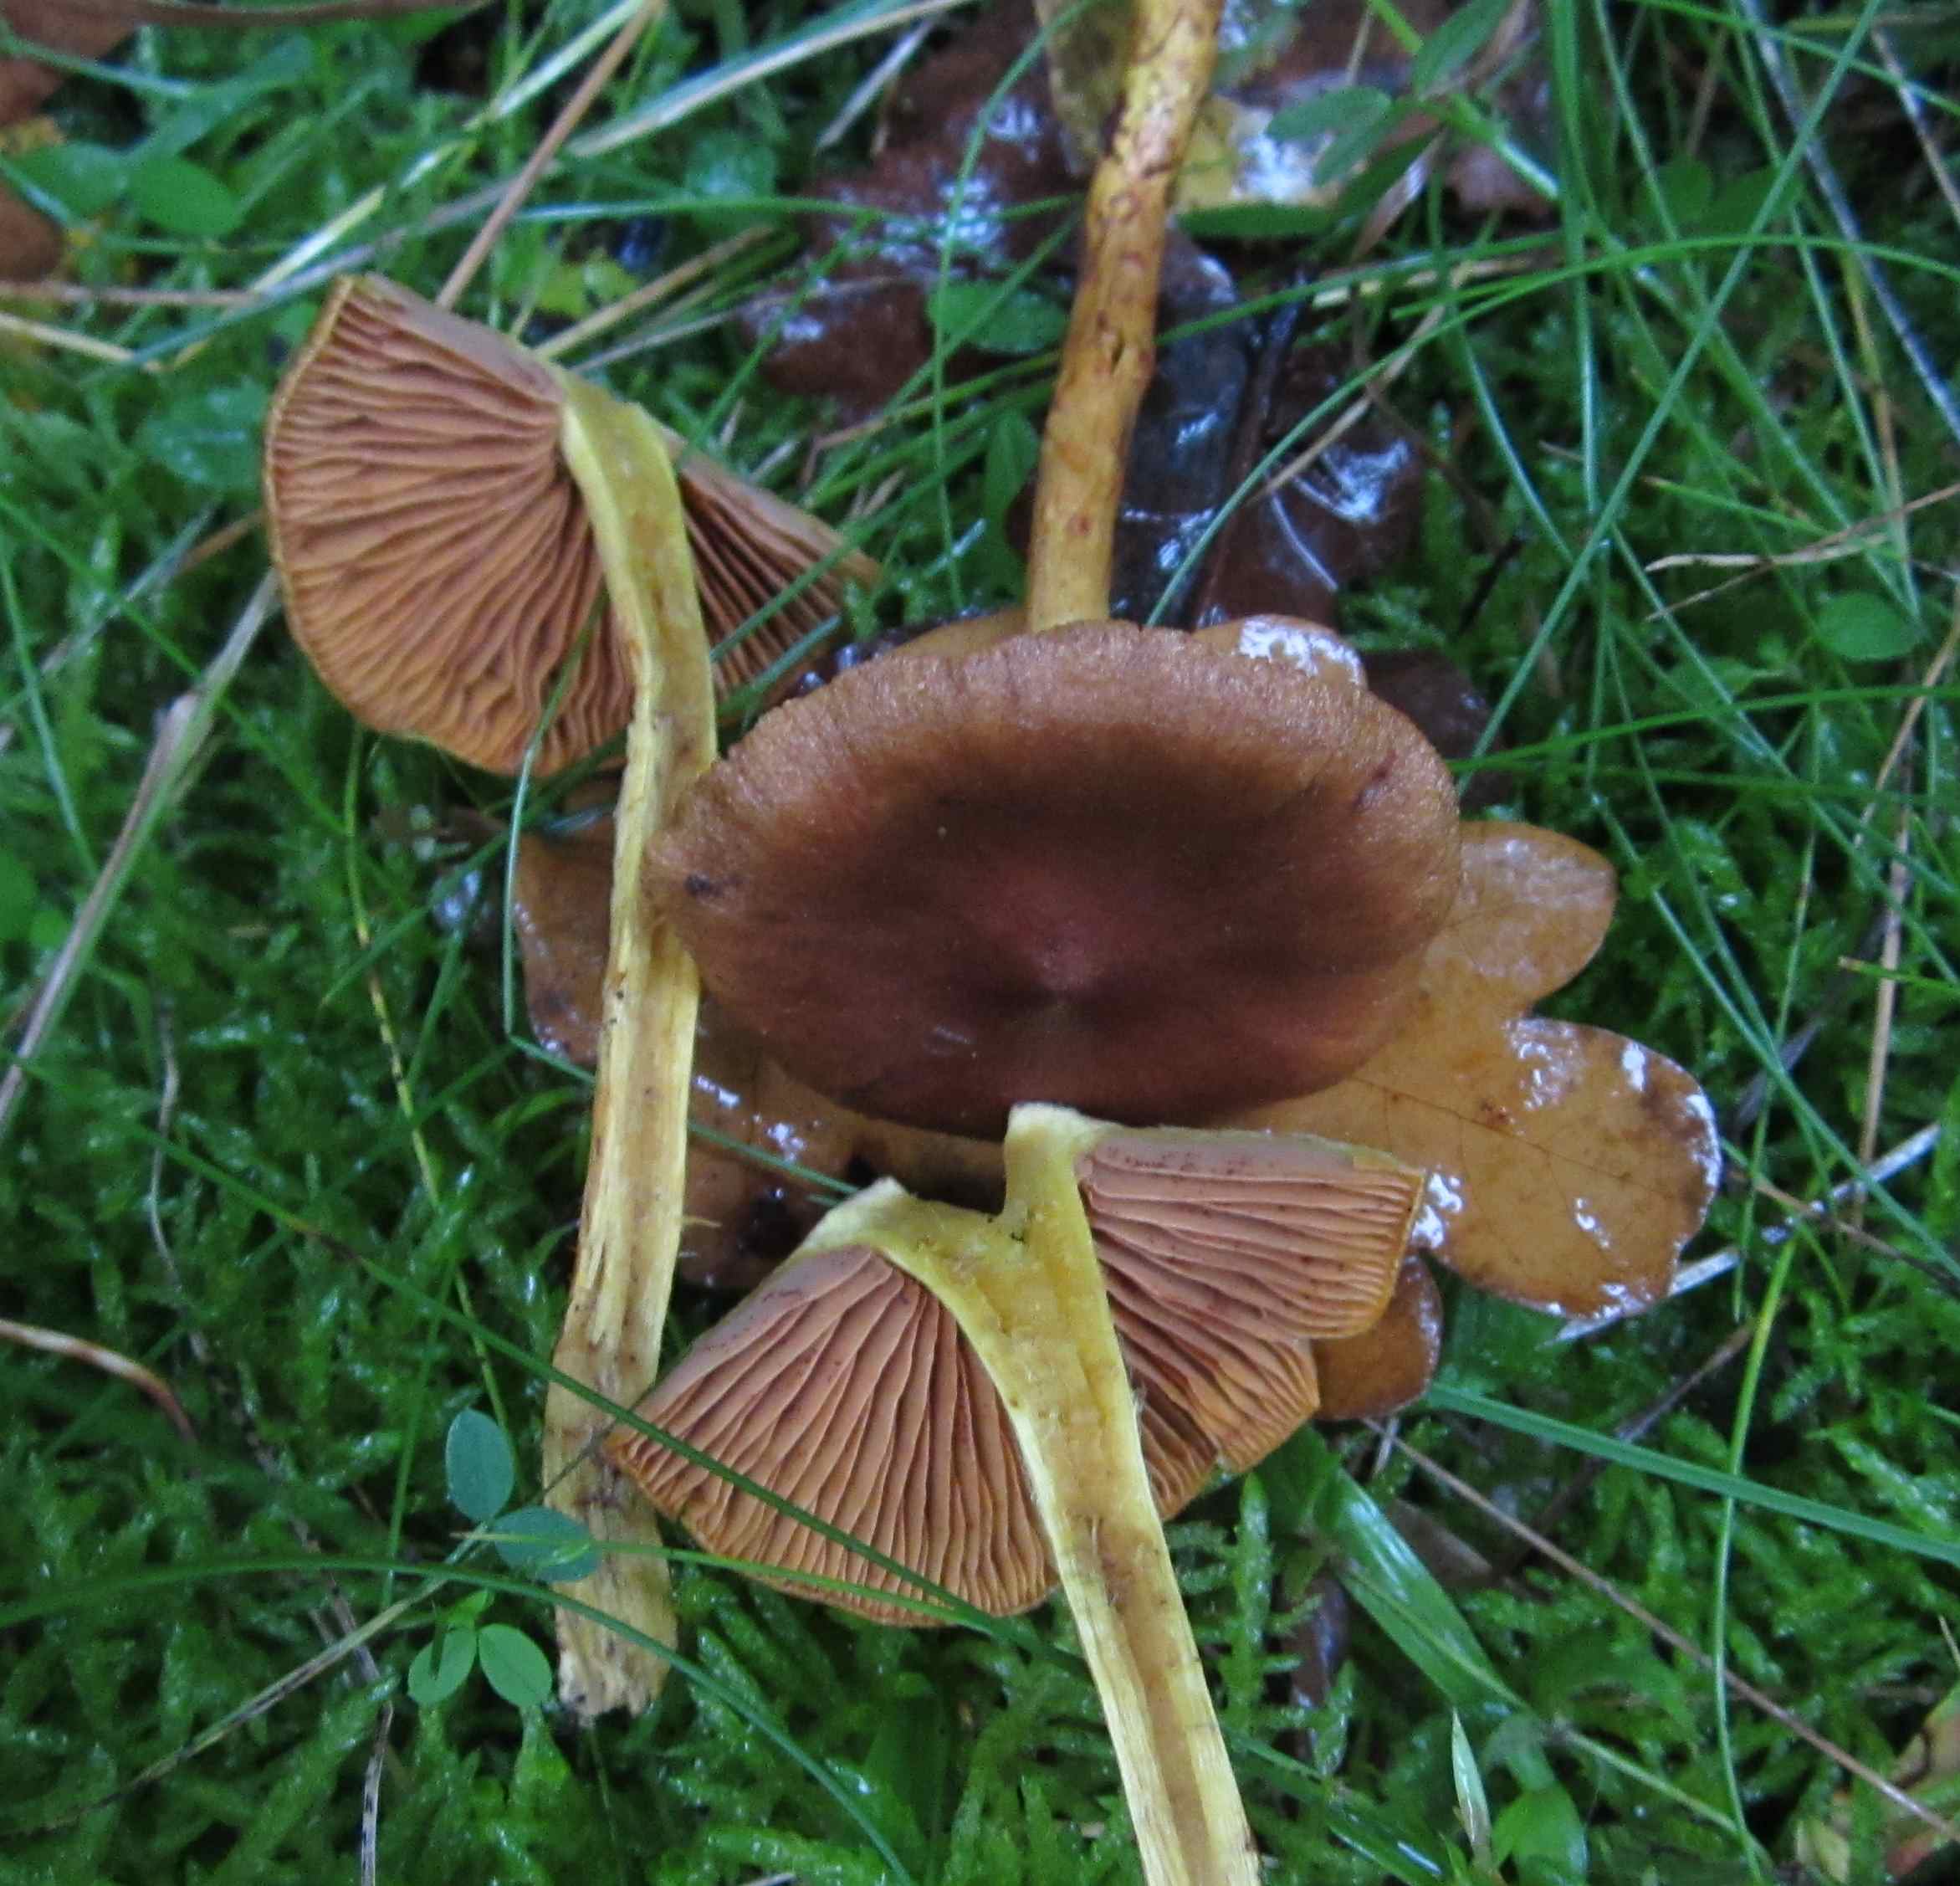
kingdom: Fungi
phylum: Basidiomycota
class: Agaricomycetes
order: Agaricales
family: Cortinariaceae
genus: Cortinarius
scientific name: Cortinarius cinnamomeus
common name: kanel-slørhat
